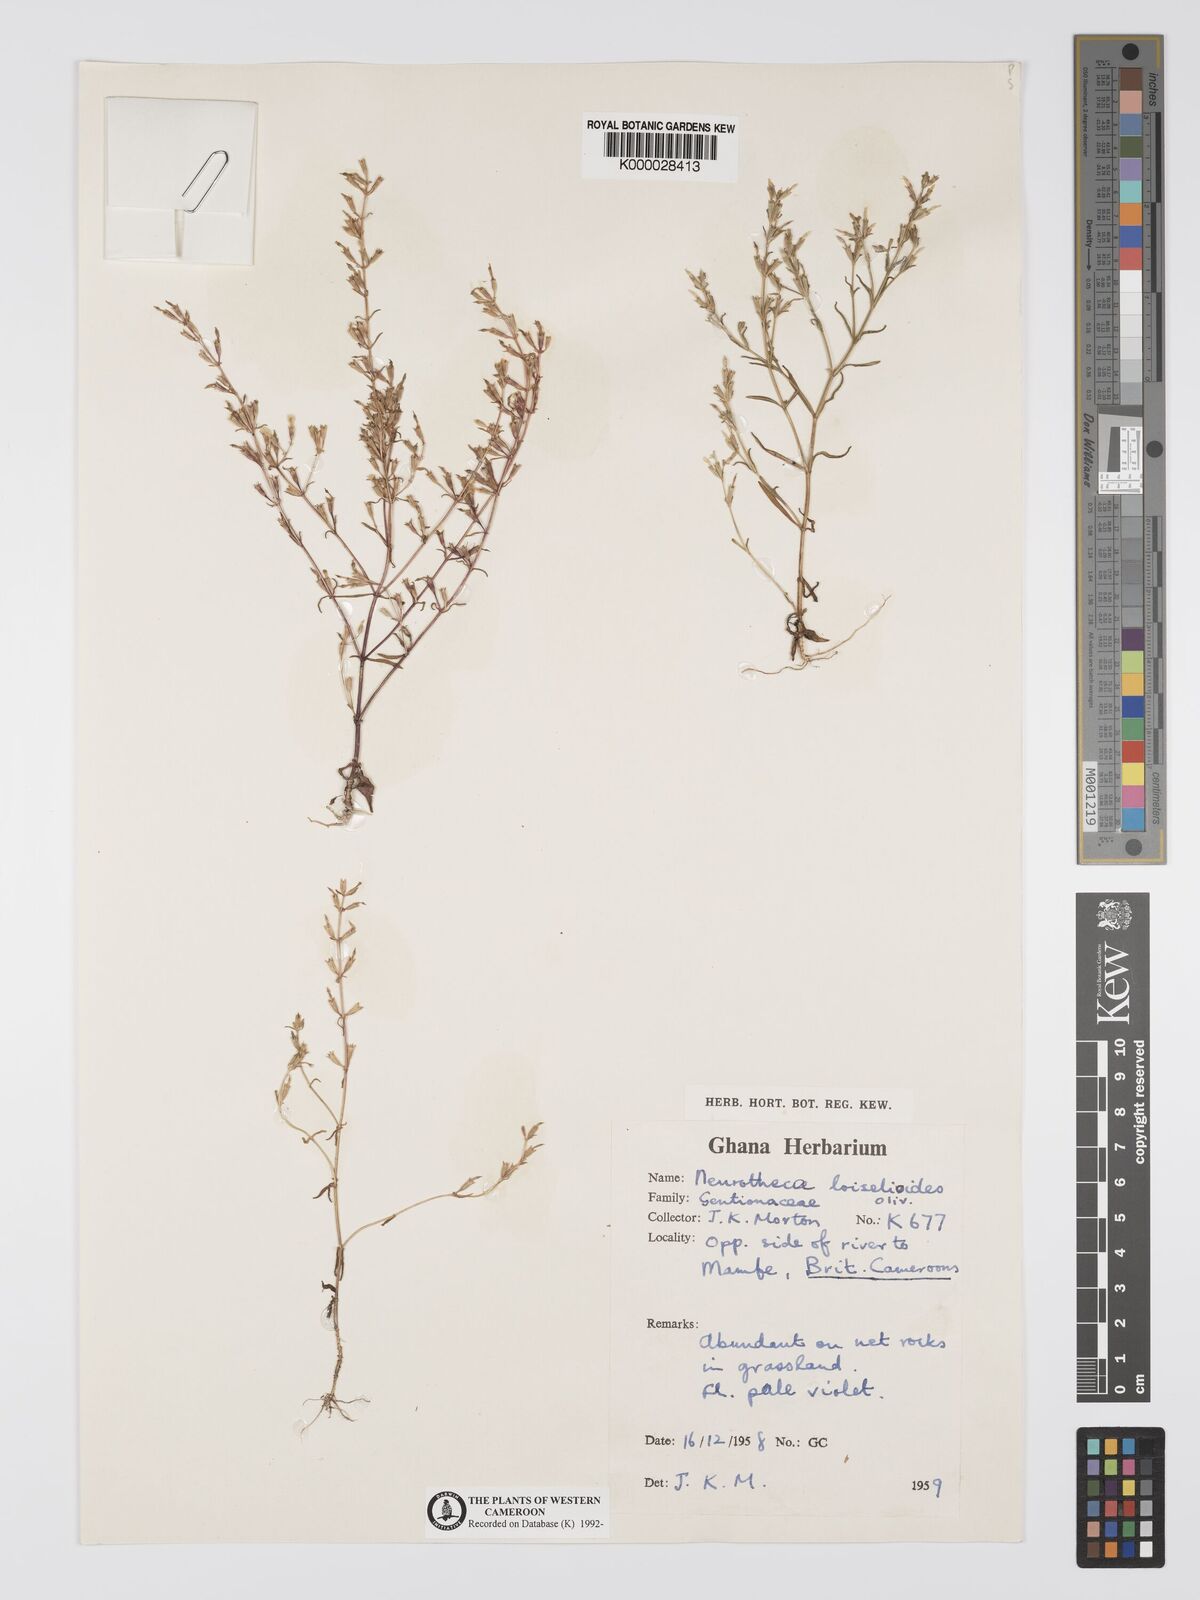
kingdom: Plantae
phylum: Tracheophyta
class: Magnoliopsida
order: Gentianales
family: Gentianaceae
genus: Neurotheca
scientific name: Neurotheca loeselioides
